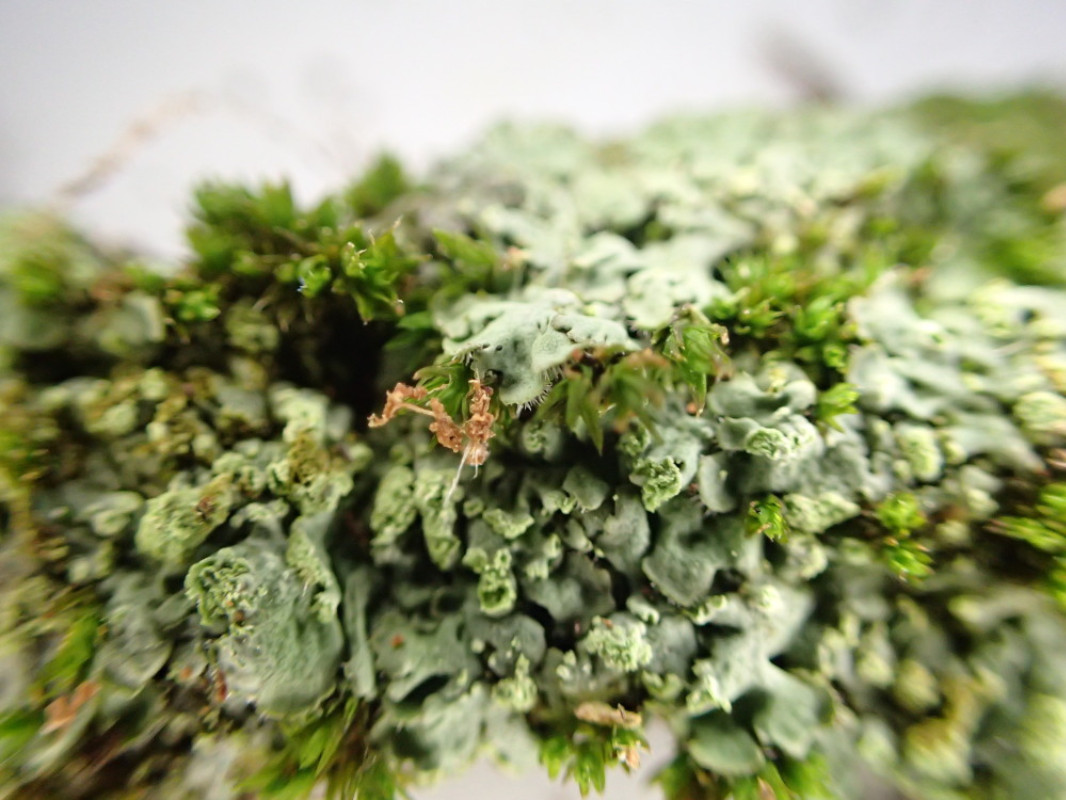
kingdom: Fungi
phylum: Ascomycota
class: Lecanoromycetes
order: Caliciales
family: Physciaceae
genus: Phaeophyscia
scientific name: Phaeophyscia orbicularis
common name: grågrøn rosetlav
